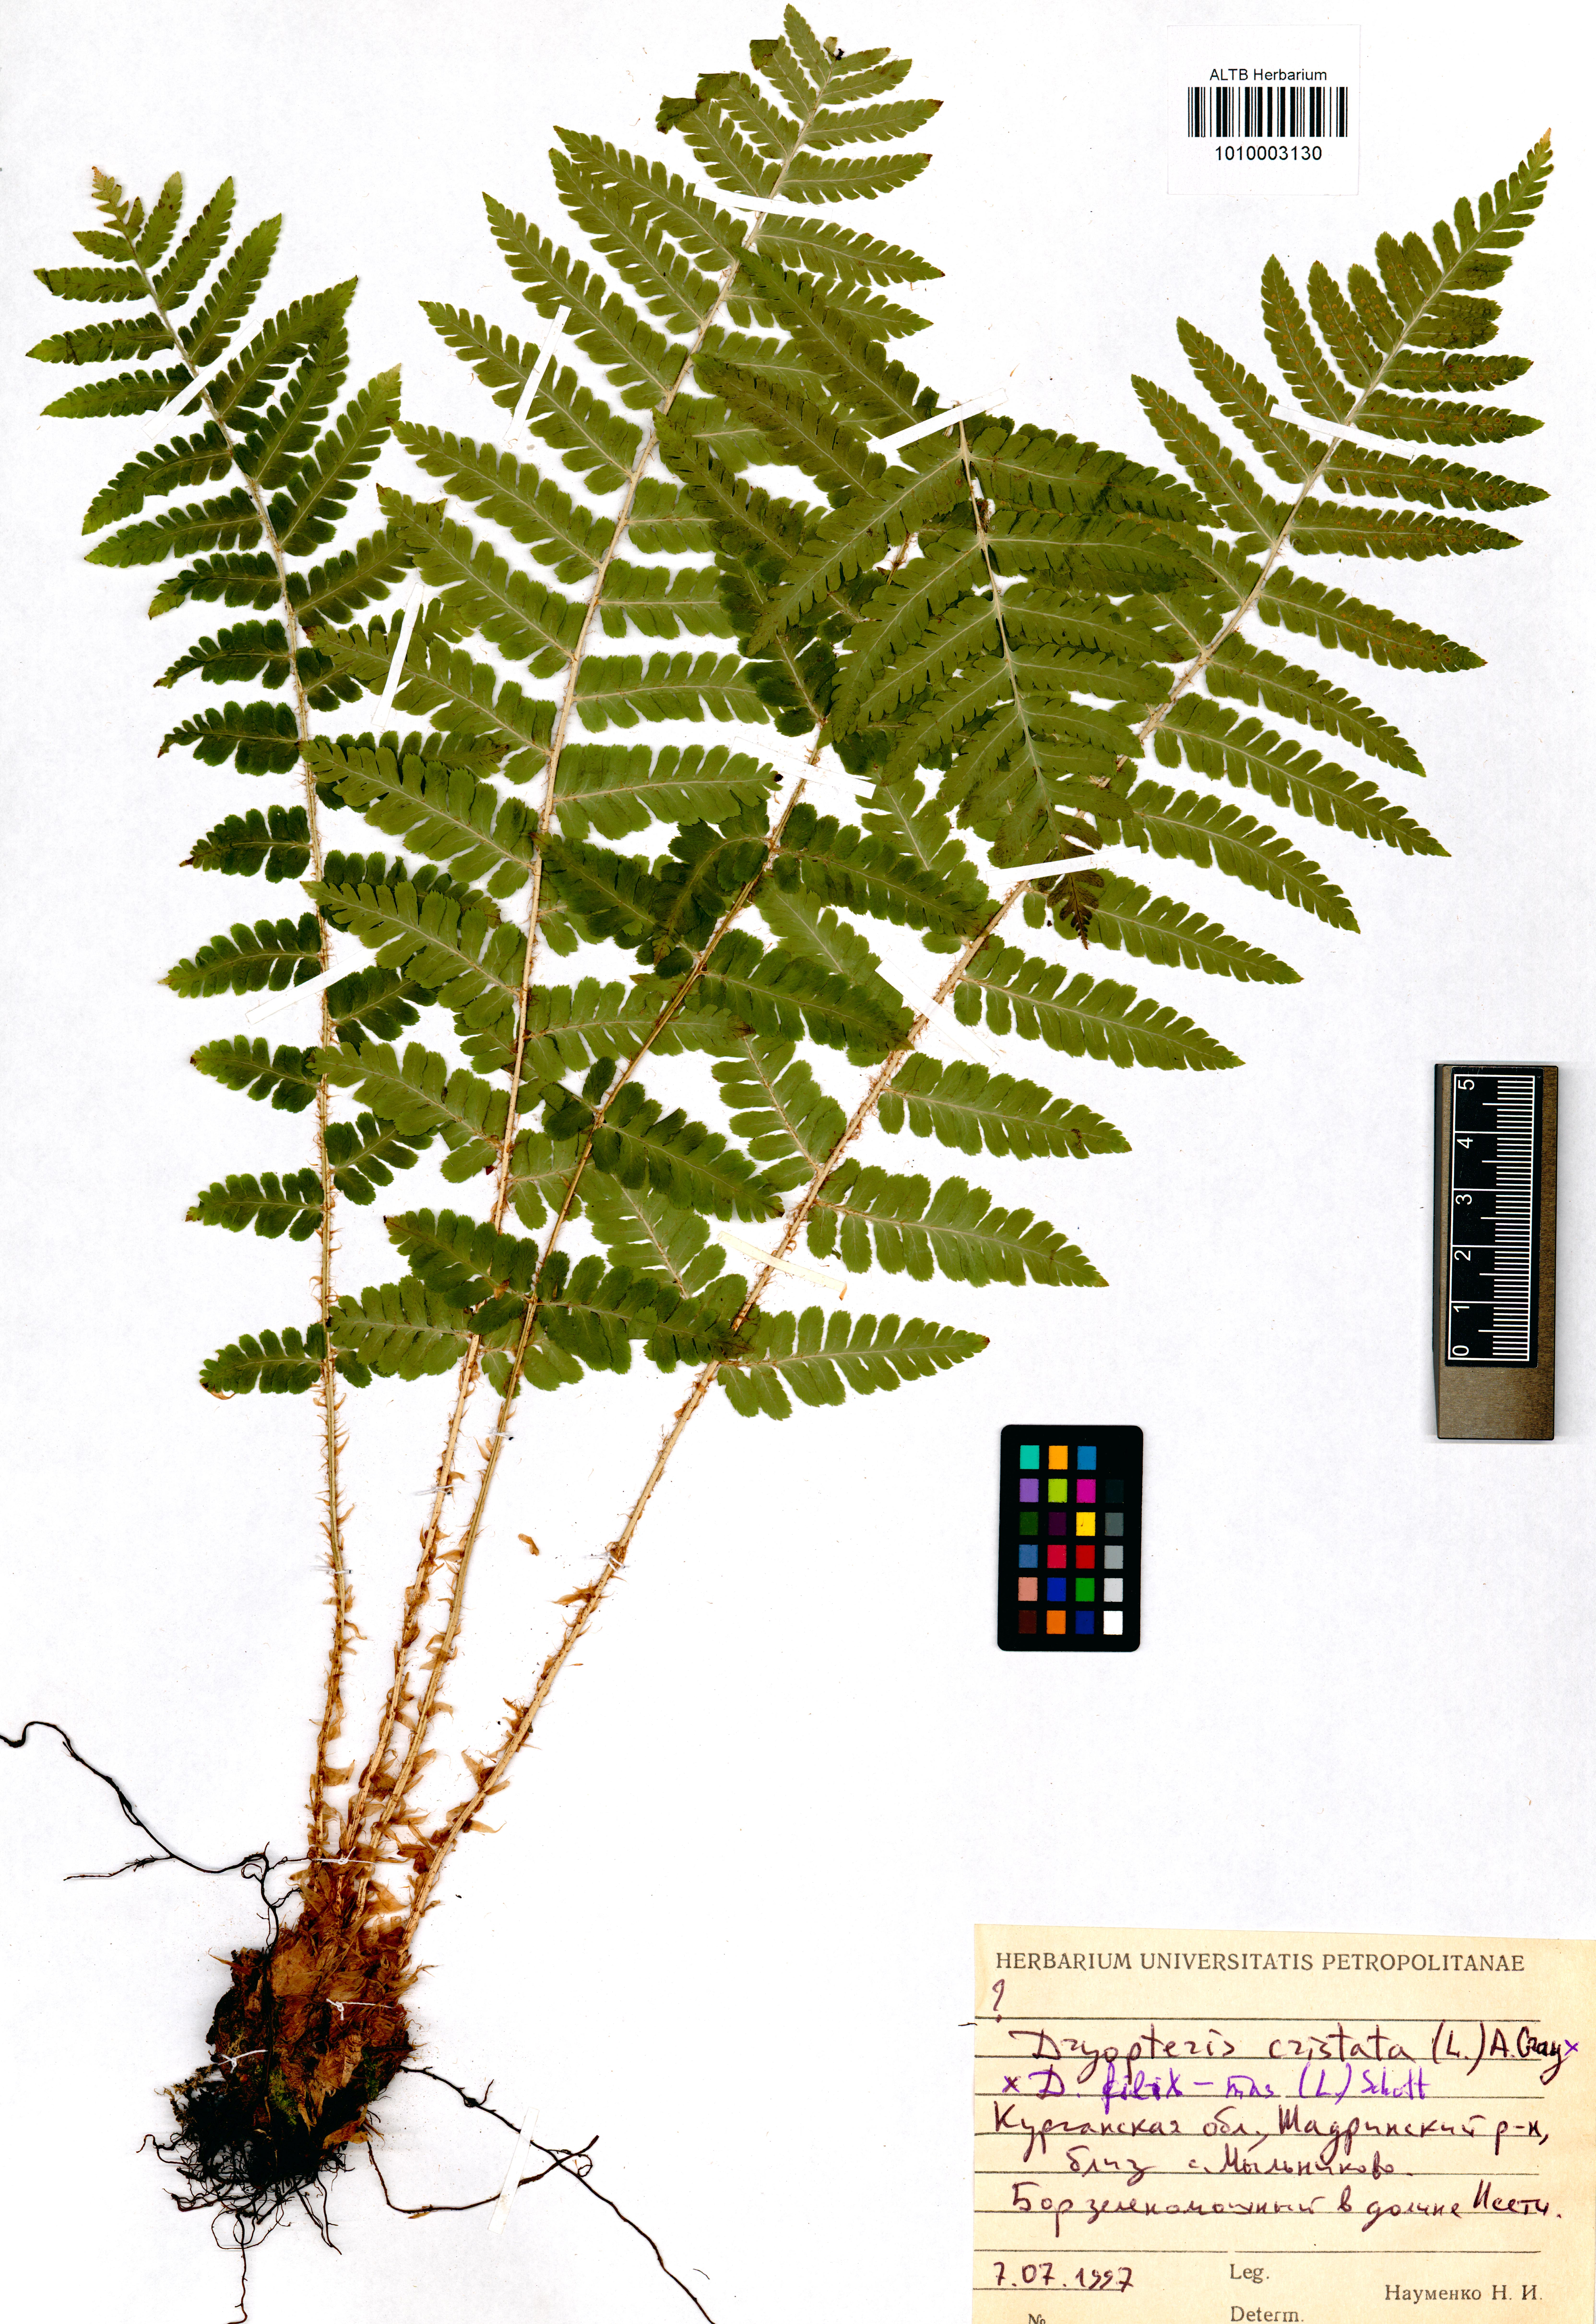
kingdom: Plantae
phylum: Tracheophyta
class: Polypodiopsida
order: Polypodiales
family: Dryopteridaceae
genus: Dryopteris
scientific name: Dryopteris filix-mas
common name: Male fern
